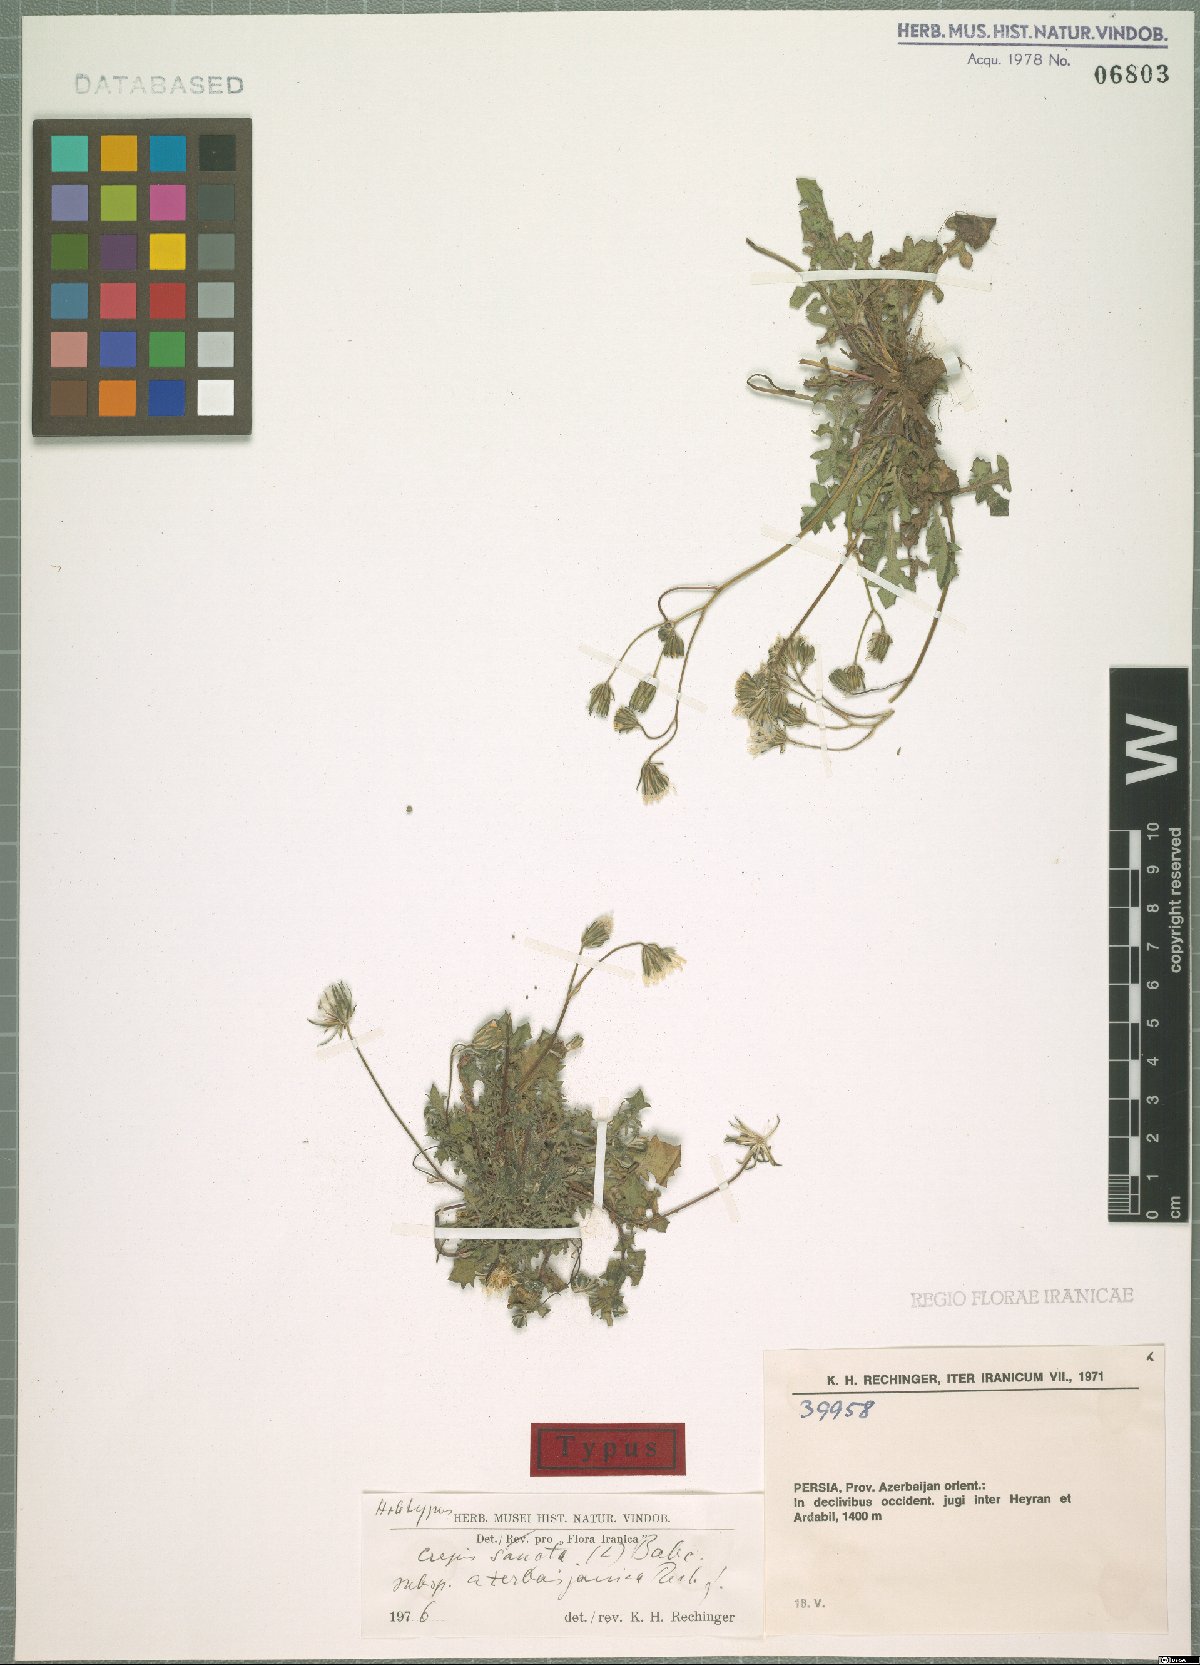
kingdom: Plantae
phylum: Tracheophyta
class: Magnoliopsida
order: Asterales
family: Asteraceae
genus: Crepis
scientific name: Crepis sancta
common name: Hawk's-beard
